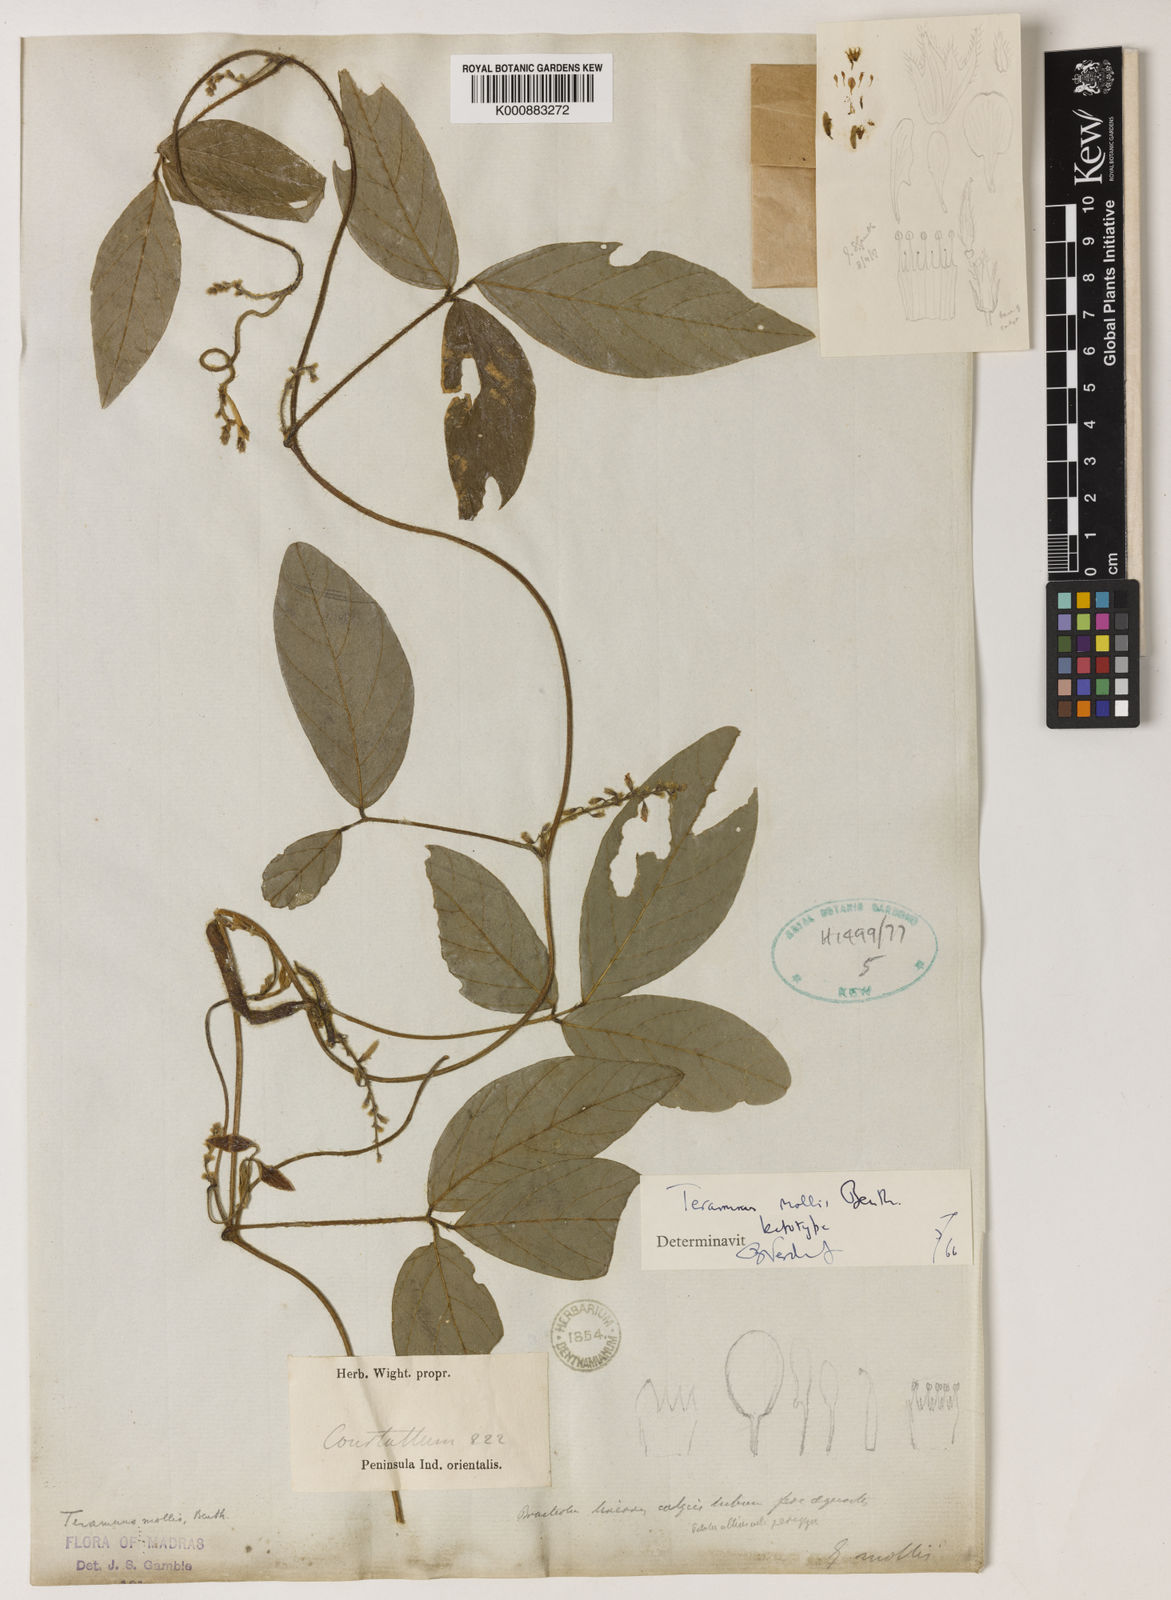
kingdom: Plantae
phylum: Tracheophyta
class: Magnoliopsida
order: Fabales
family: Fabaceae
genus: Teramnus
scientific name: Teramnus mollis
